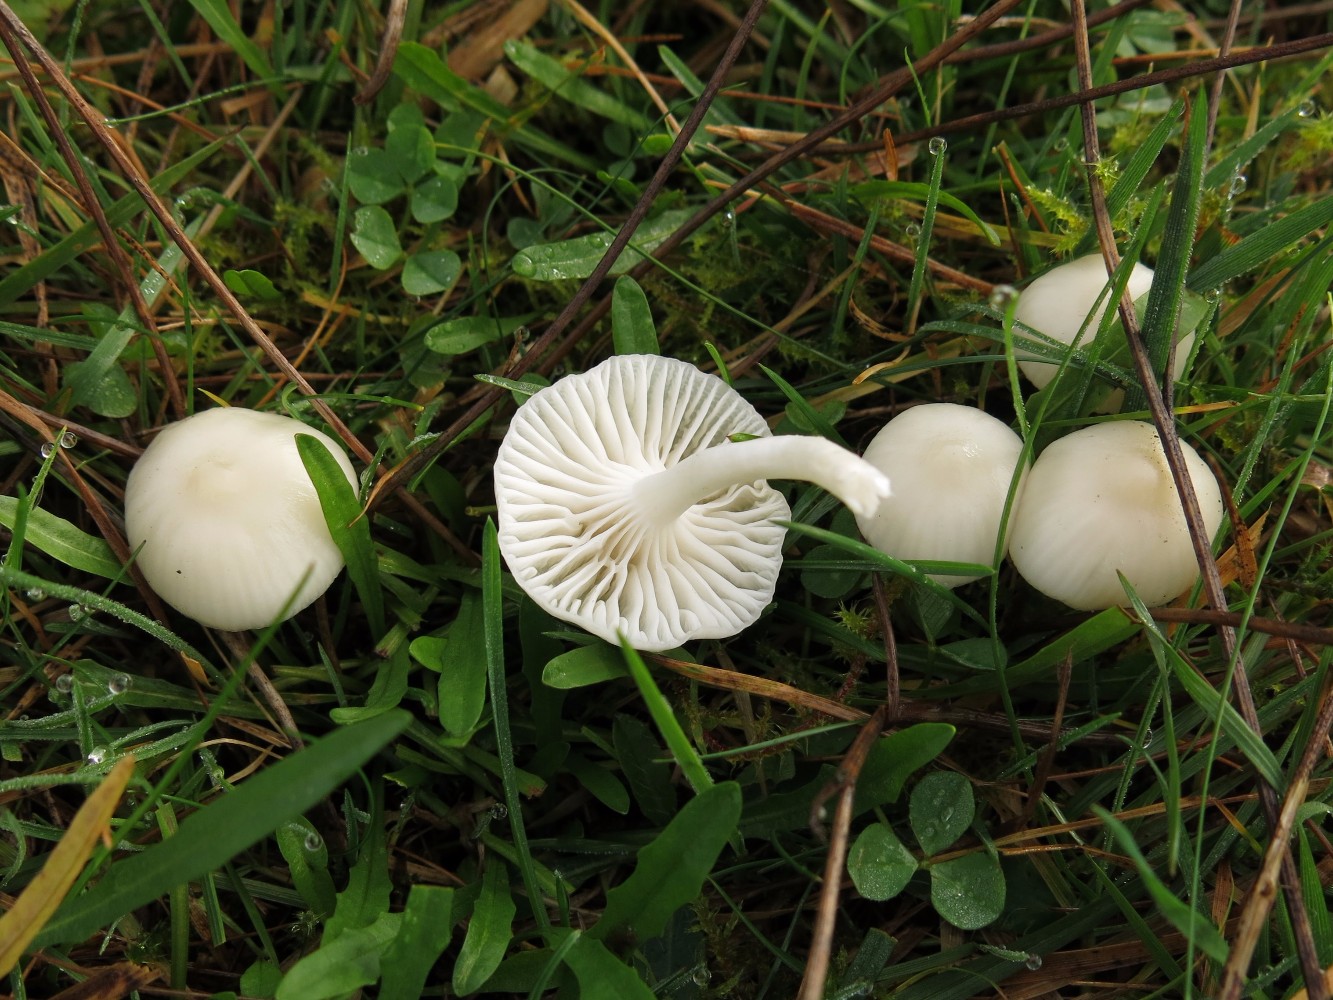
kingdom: Fungi
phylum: Basidiomycota
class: Agaricomycetes
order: Agaricales
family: Hygrophoraceae
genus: Cuphophyllus
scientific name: Cuphophyllus virgineus
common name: snehvid vokshat
